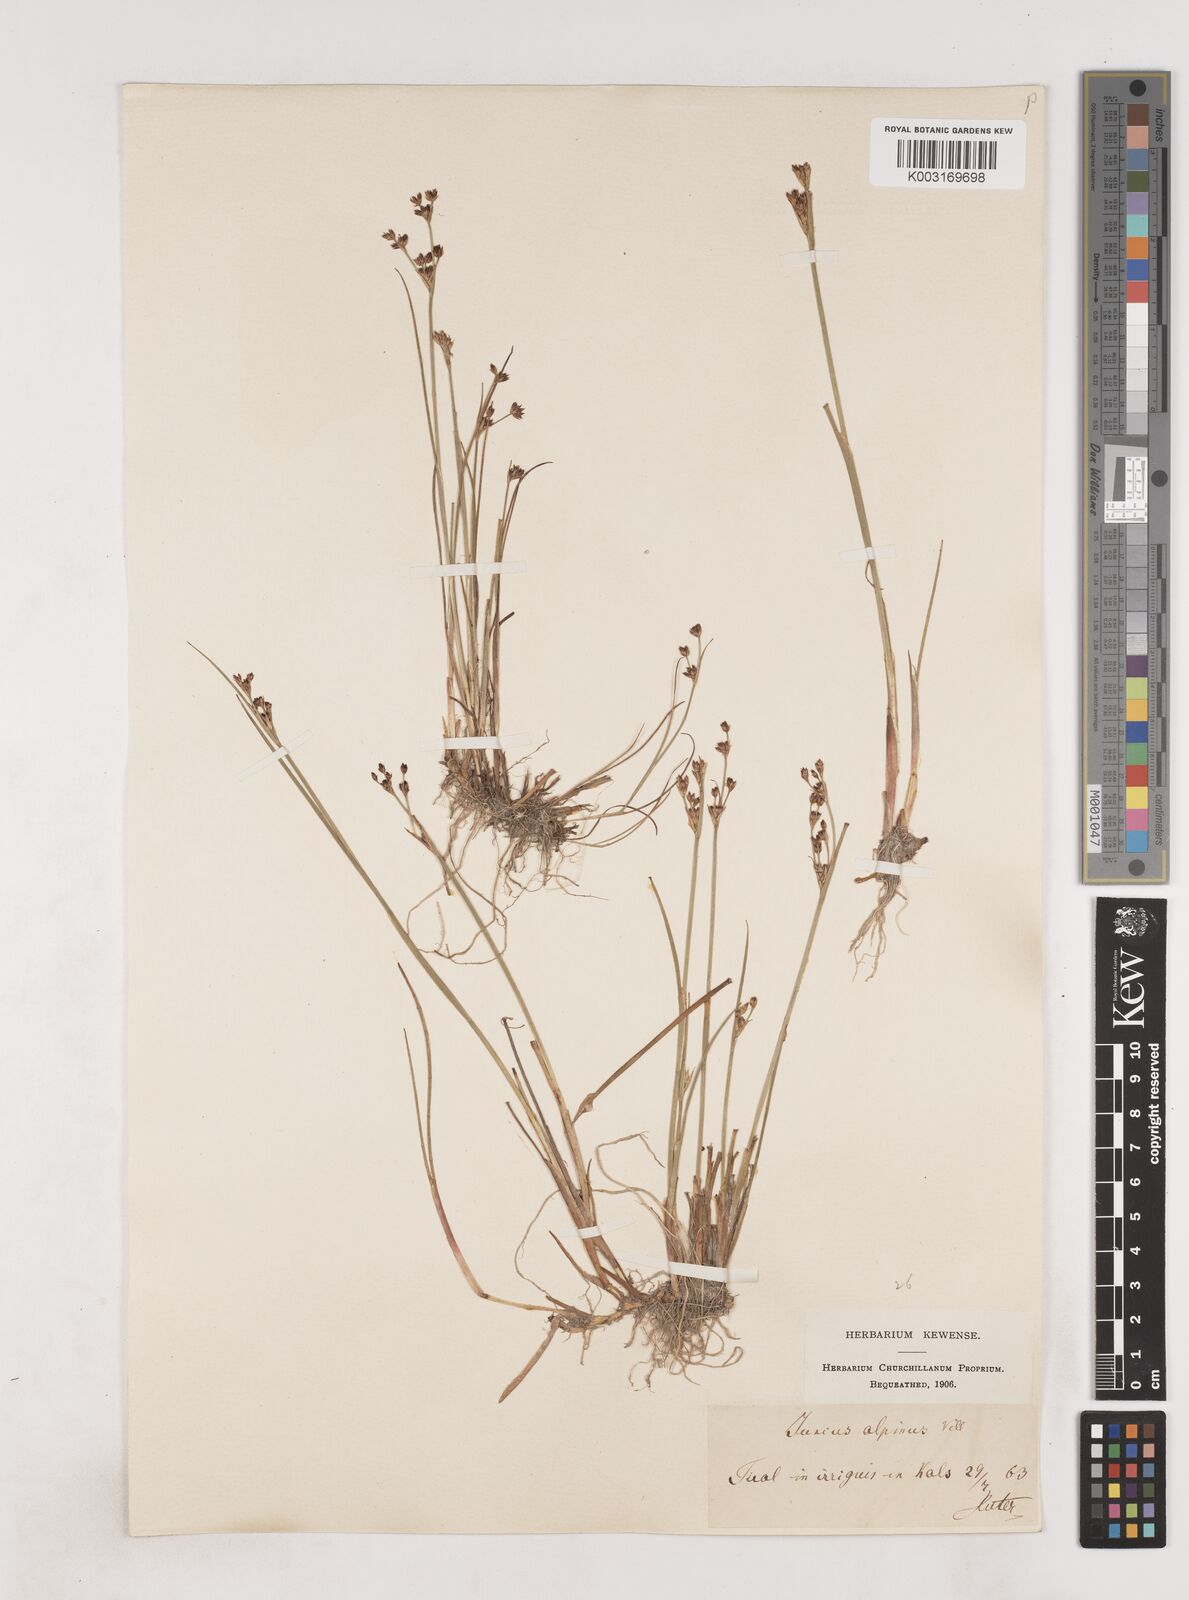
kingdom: Plantae
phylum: Tracheophyta
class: Liliopsida
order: Poales
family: Juncaceae
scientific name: Juncaceae
